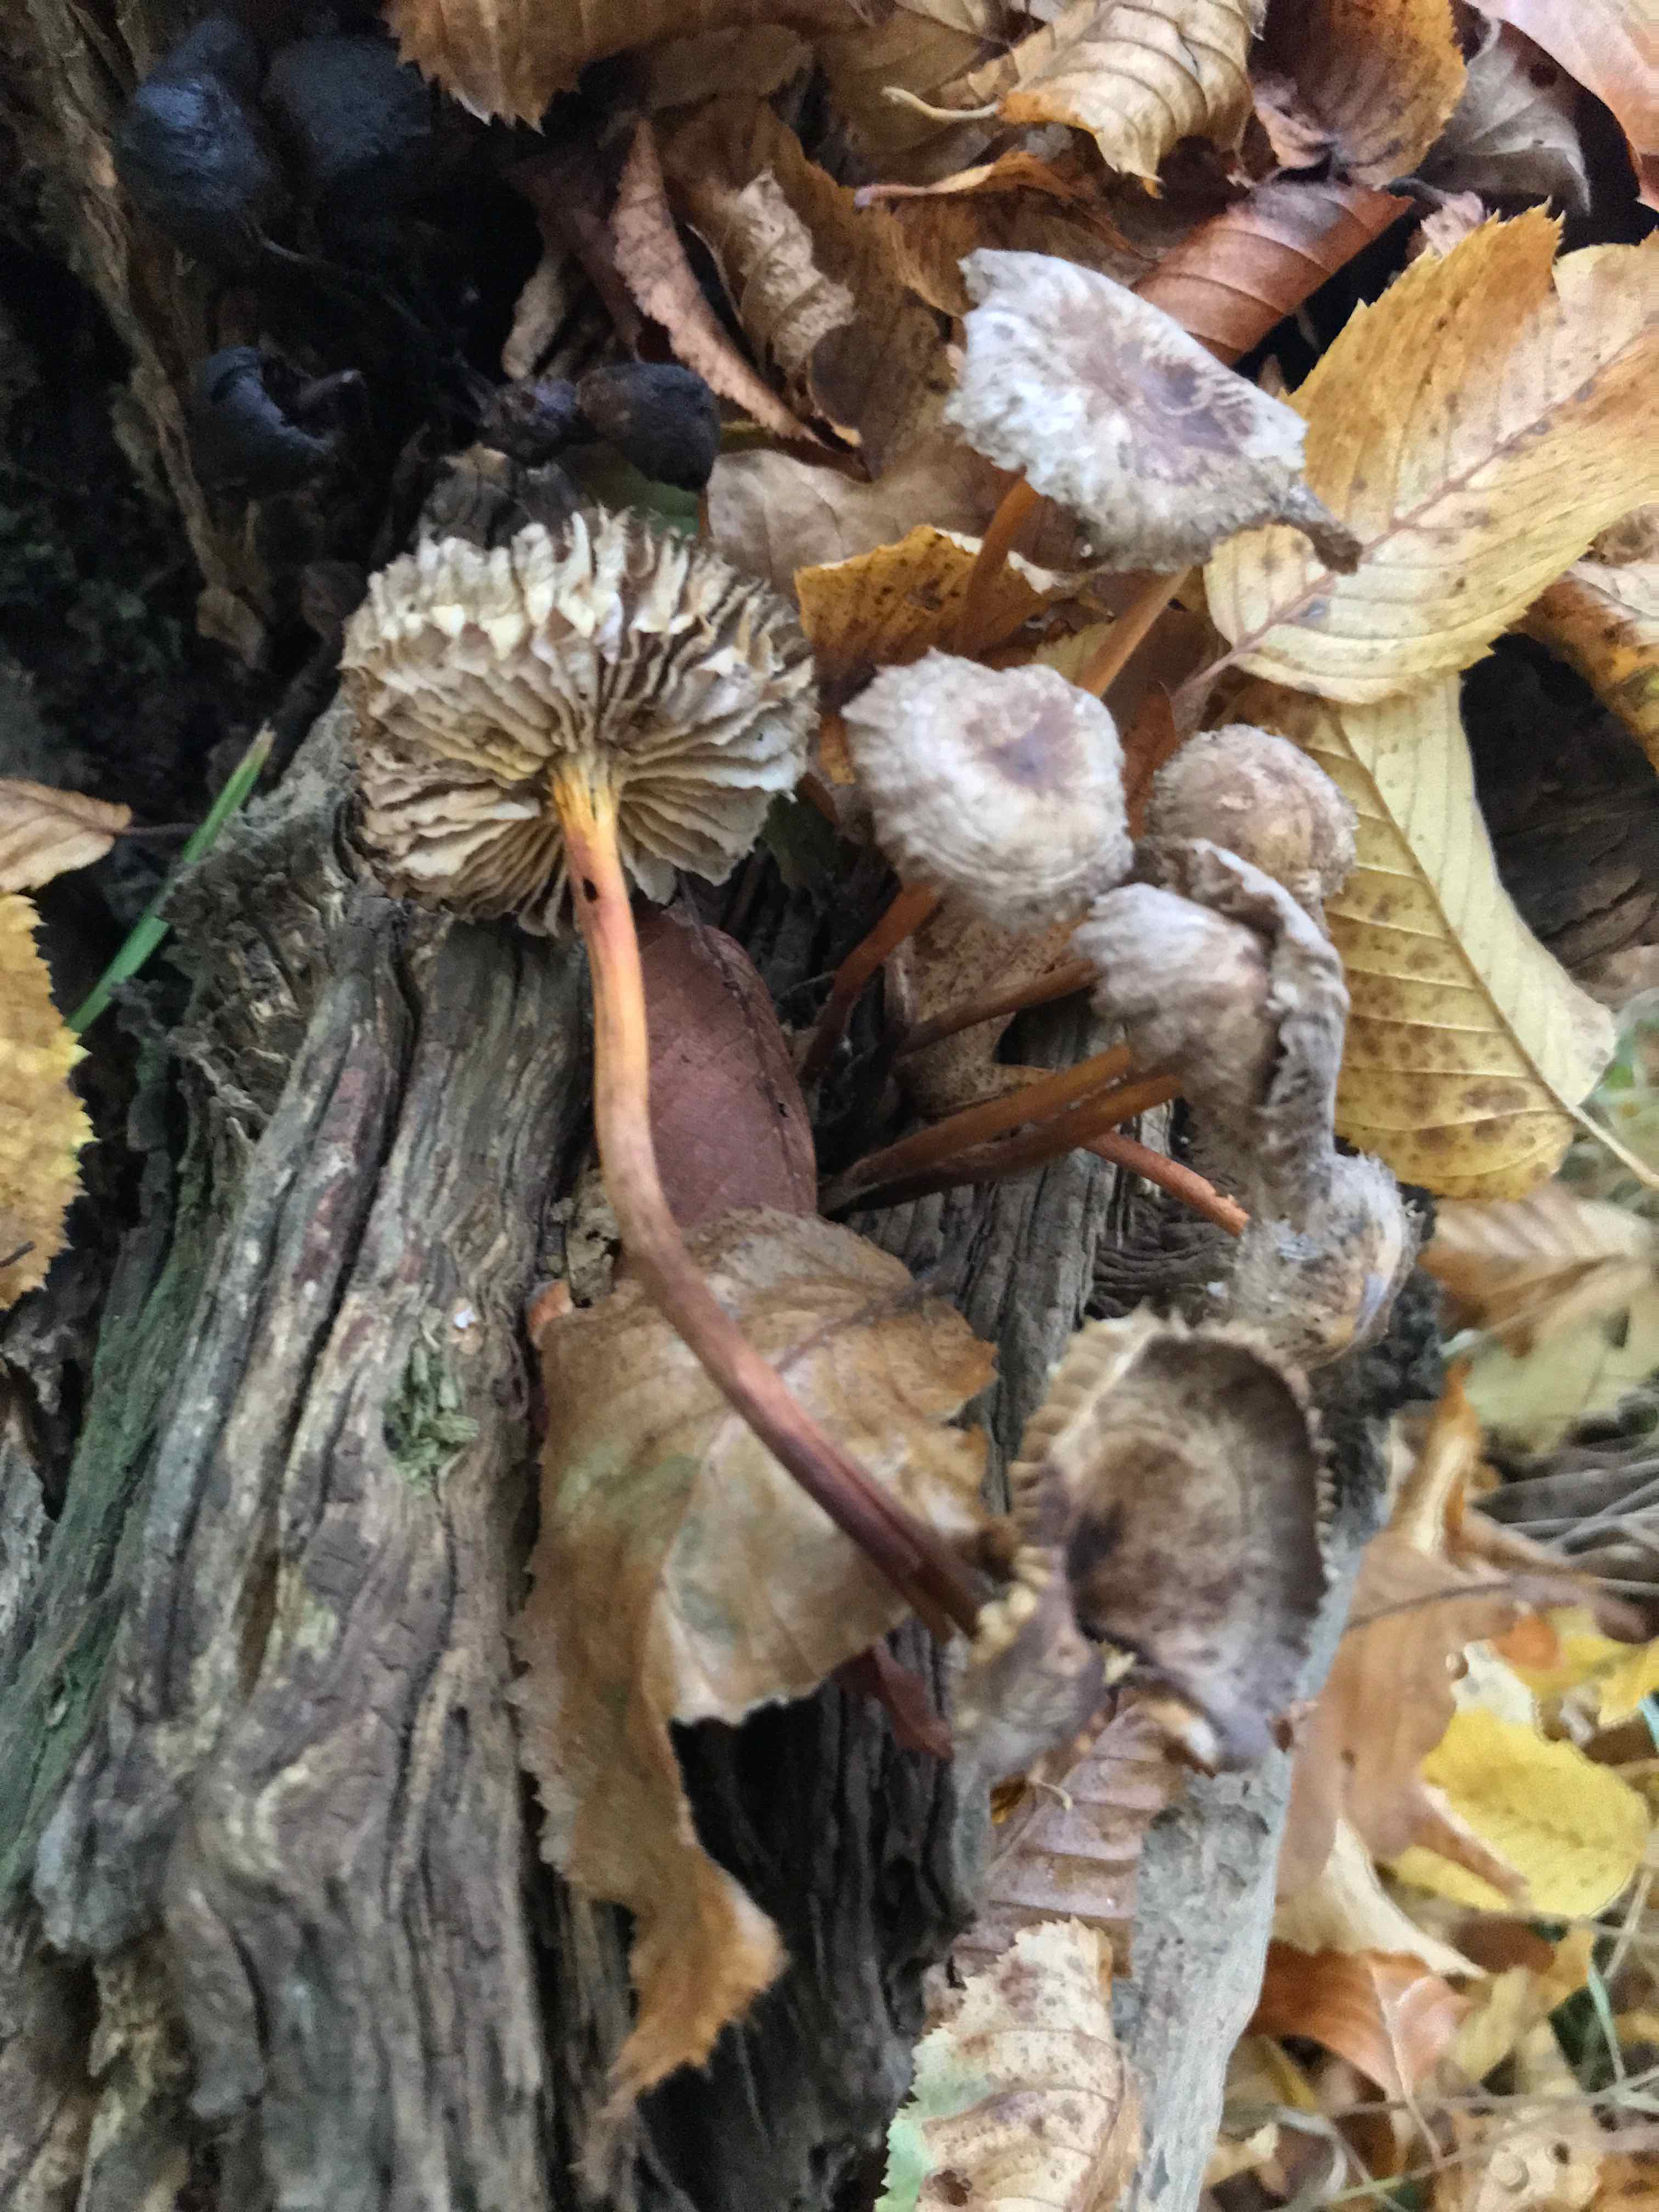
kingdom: Fungi
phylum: Basidiomycota
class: Agaricomycetes
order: Agaricales
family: Mycenaceae
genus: Mycena
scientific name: Mycena inclinata
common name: nikkende huesvamp
